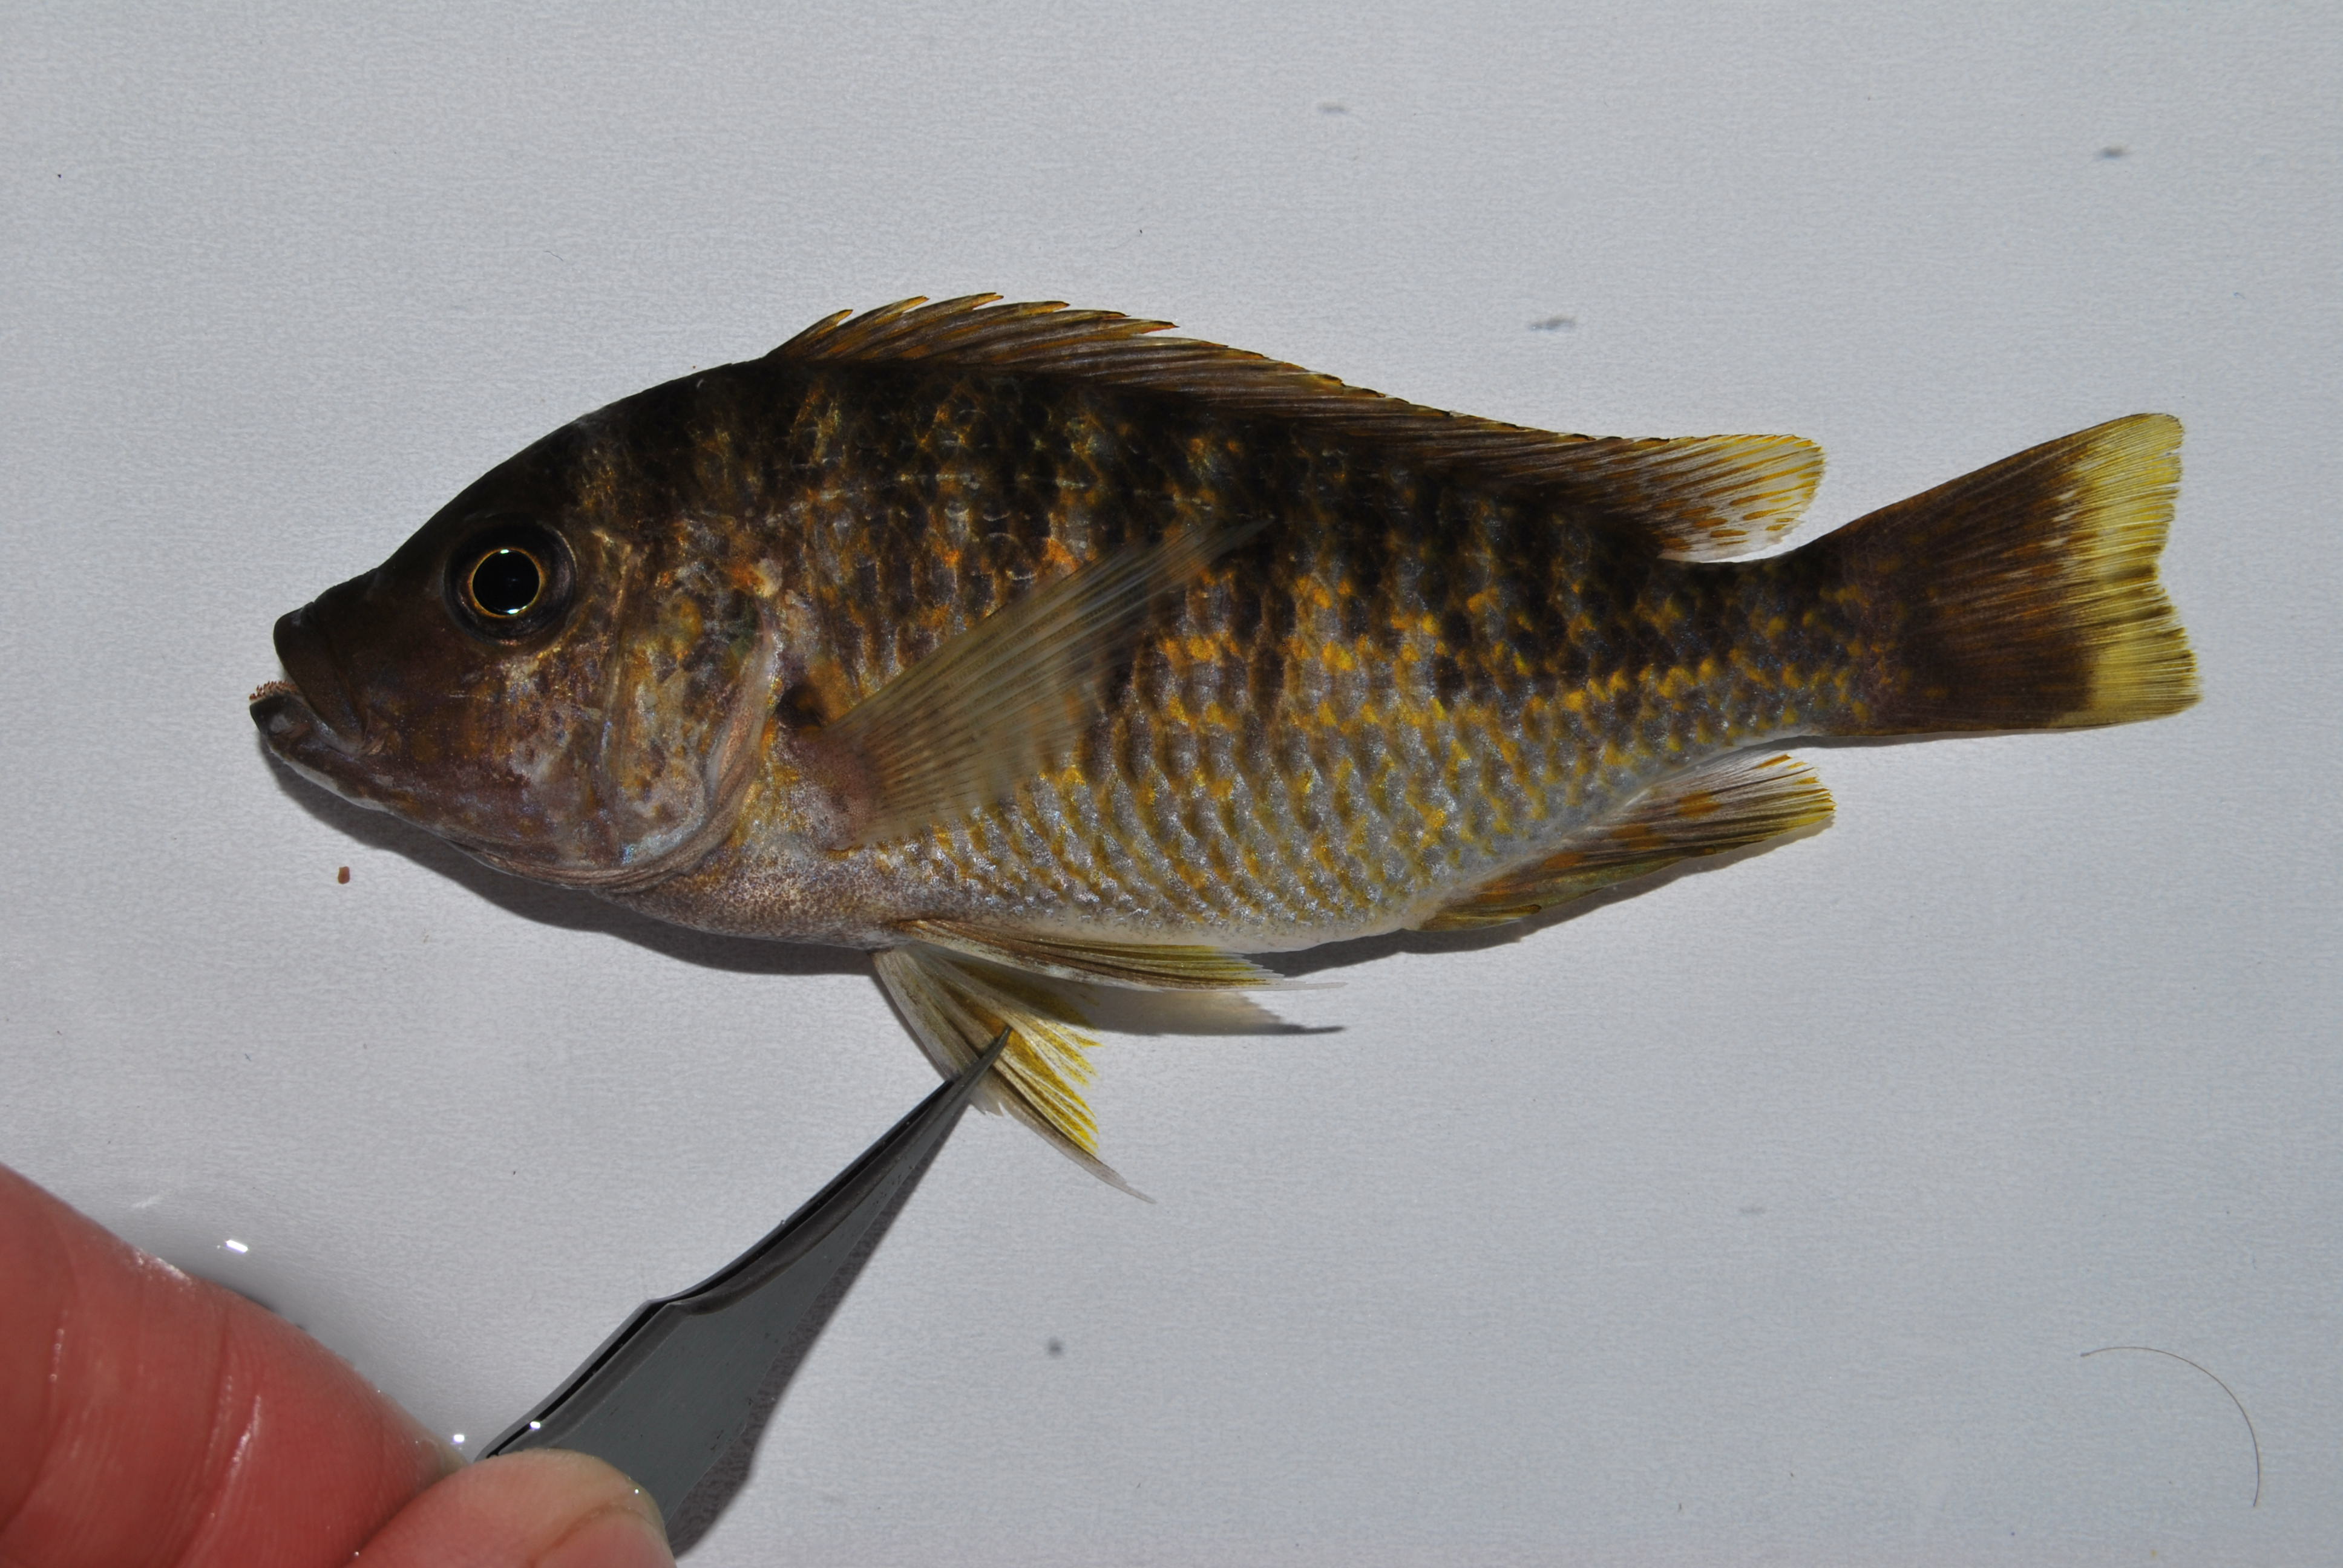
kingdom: Animalia
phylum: Chordata
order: Perciformes
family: Cichlidae
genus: Petrochromis
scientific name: Petrochromis fasciolatus
